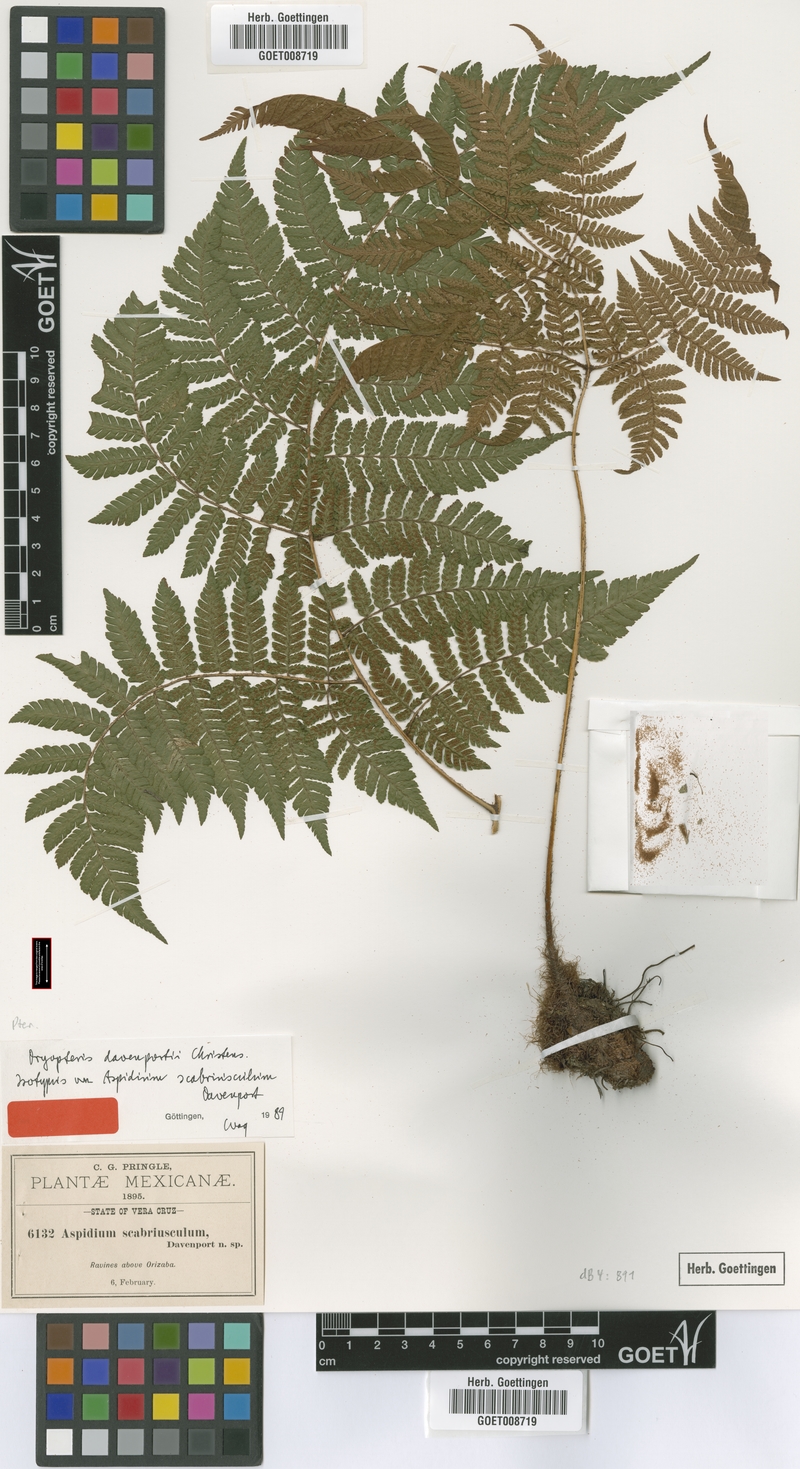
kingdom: Plantae
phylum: Tracheophyta
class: Polypodiopsida
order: Polypodiales
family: Dryopteridaceae
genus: Ctenitis
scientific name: Ctenitis equestris
